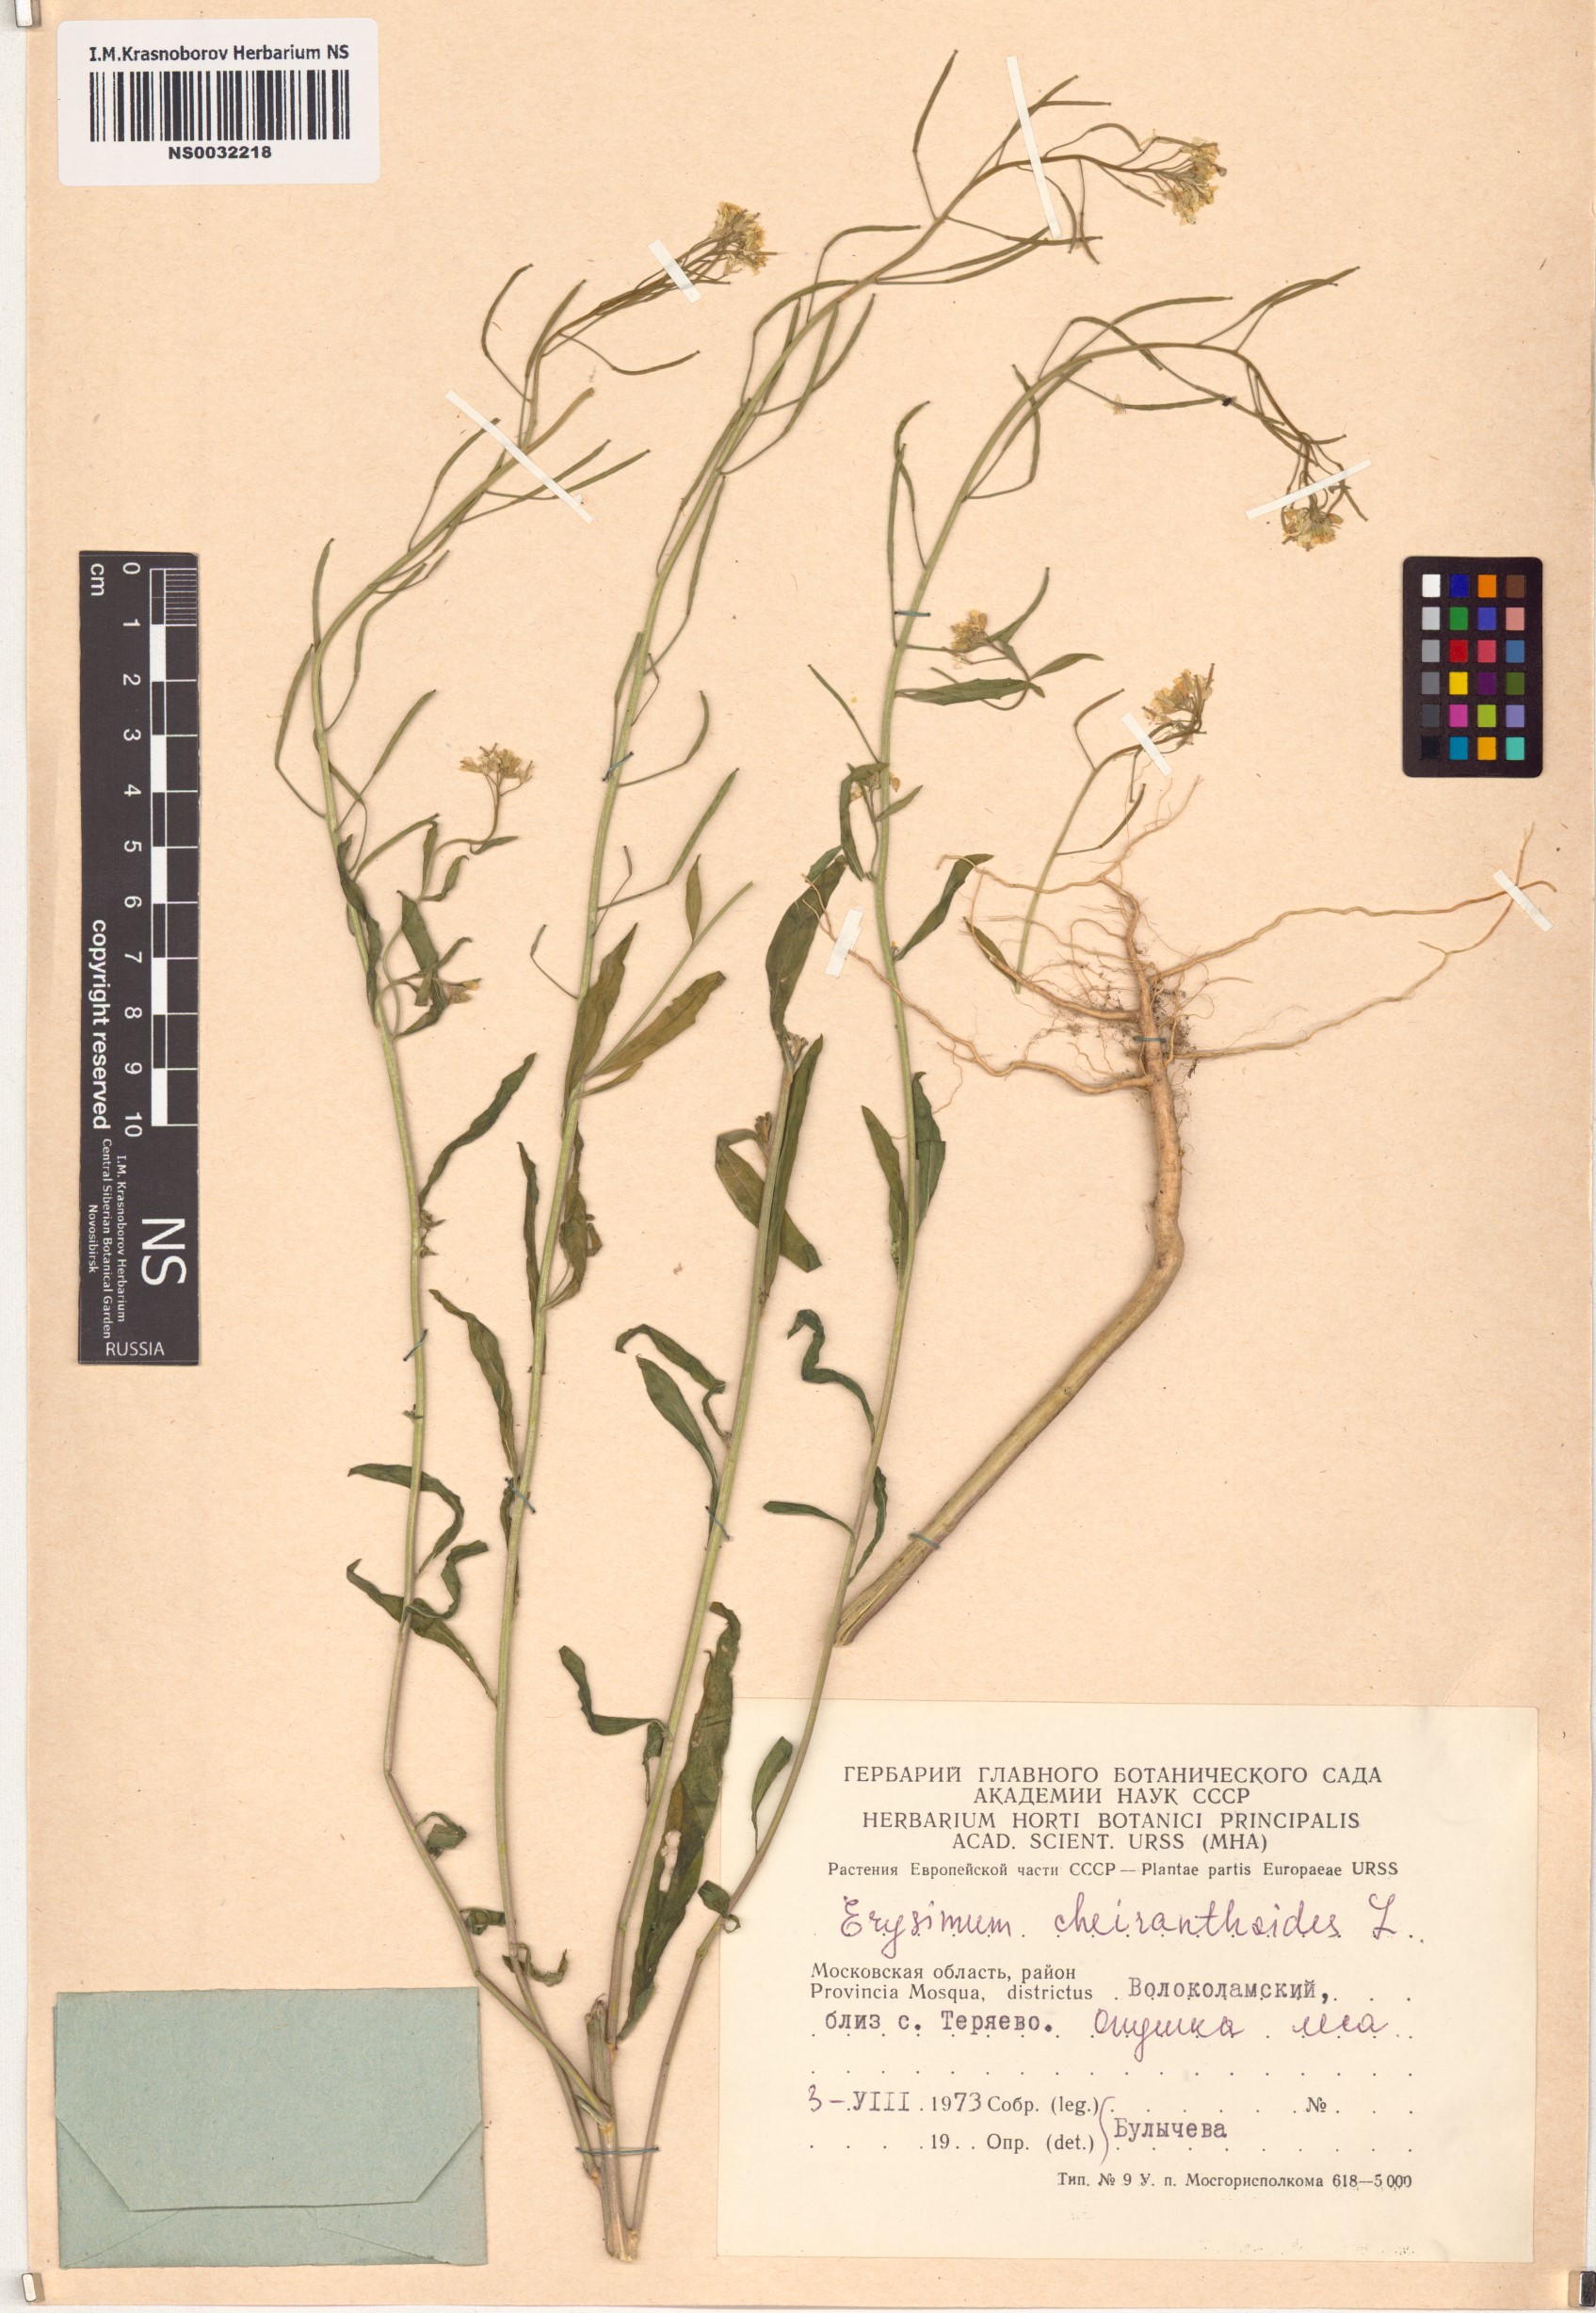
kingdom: Plantae
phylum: Tracheophyta
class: Magnoliopsida
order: Brassicales
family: Brassicaceae
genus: Erysimum
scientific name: Erysimum cheiranthoides
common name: Treacle mustard
